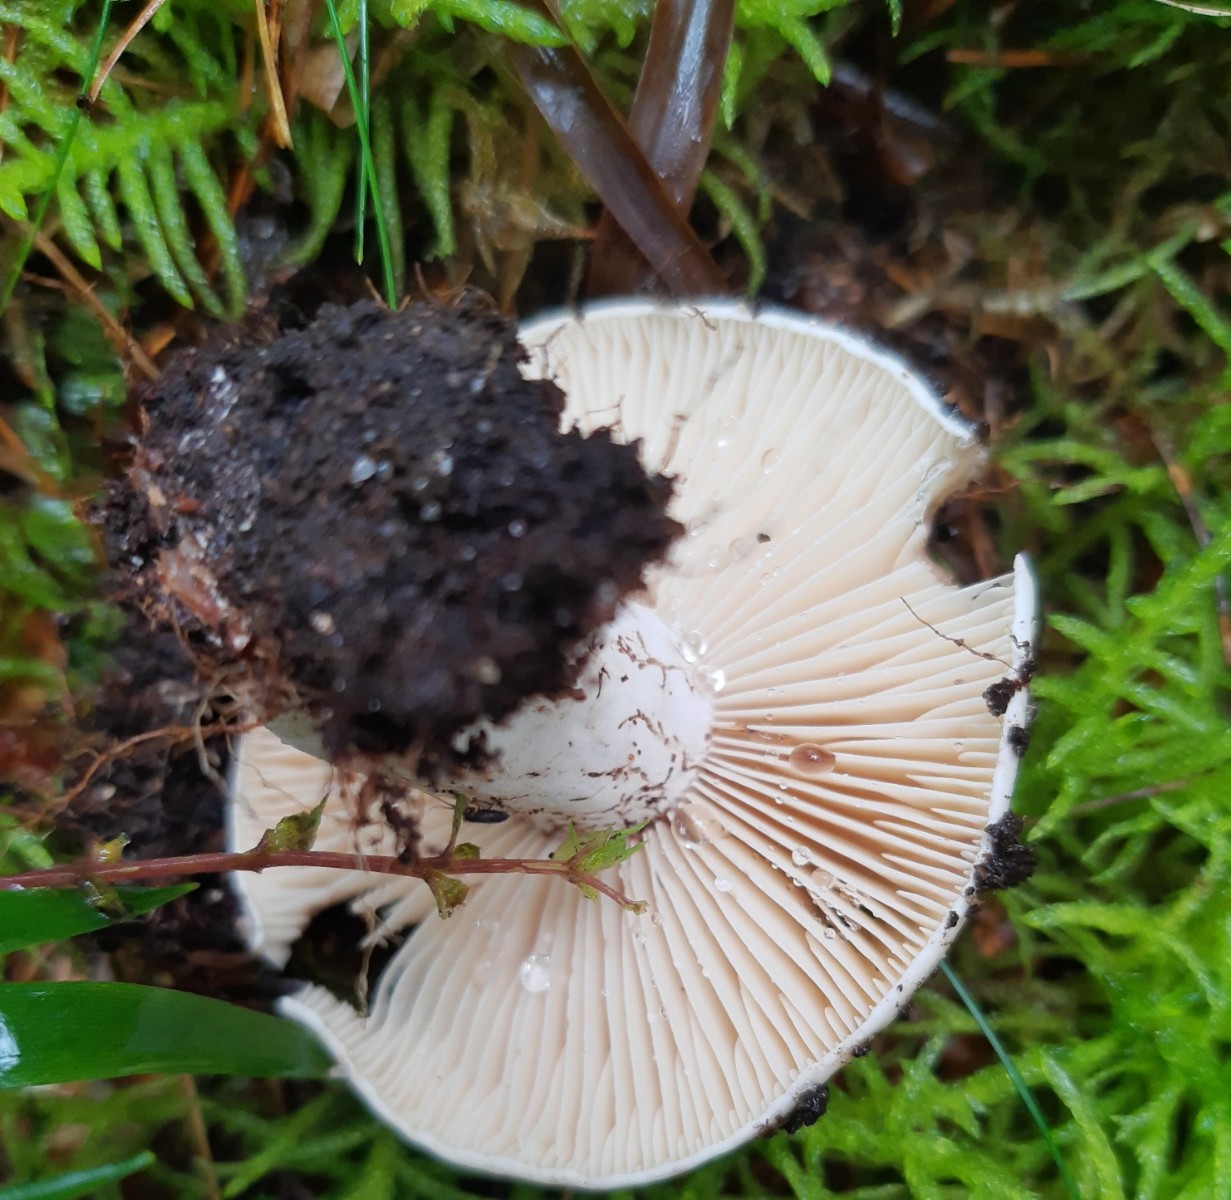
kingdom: Fungi
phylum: Basidiomycota
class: Agaricomycetes
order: Russulales
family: Russulaceae
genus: Russula
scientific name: Russula adusta
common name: sværtende skørhat
